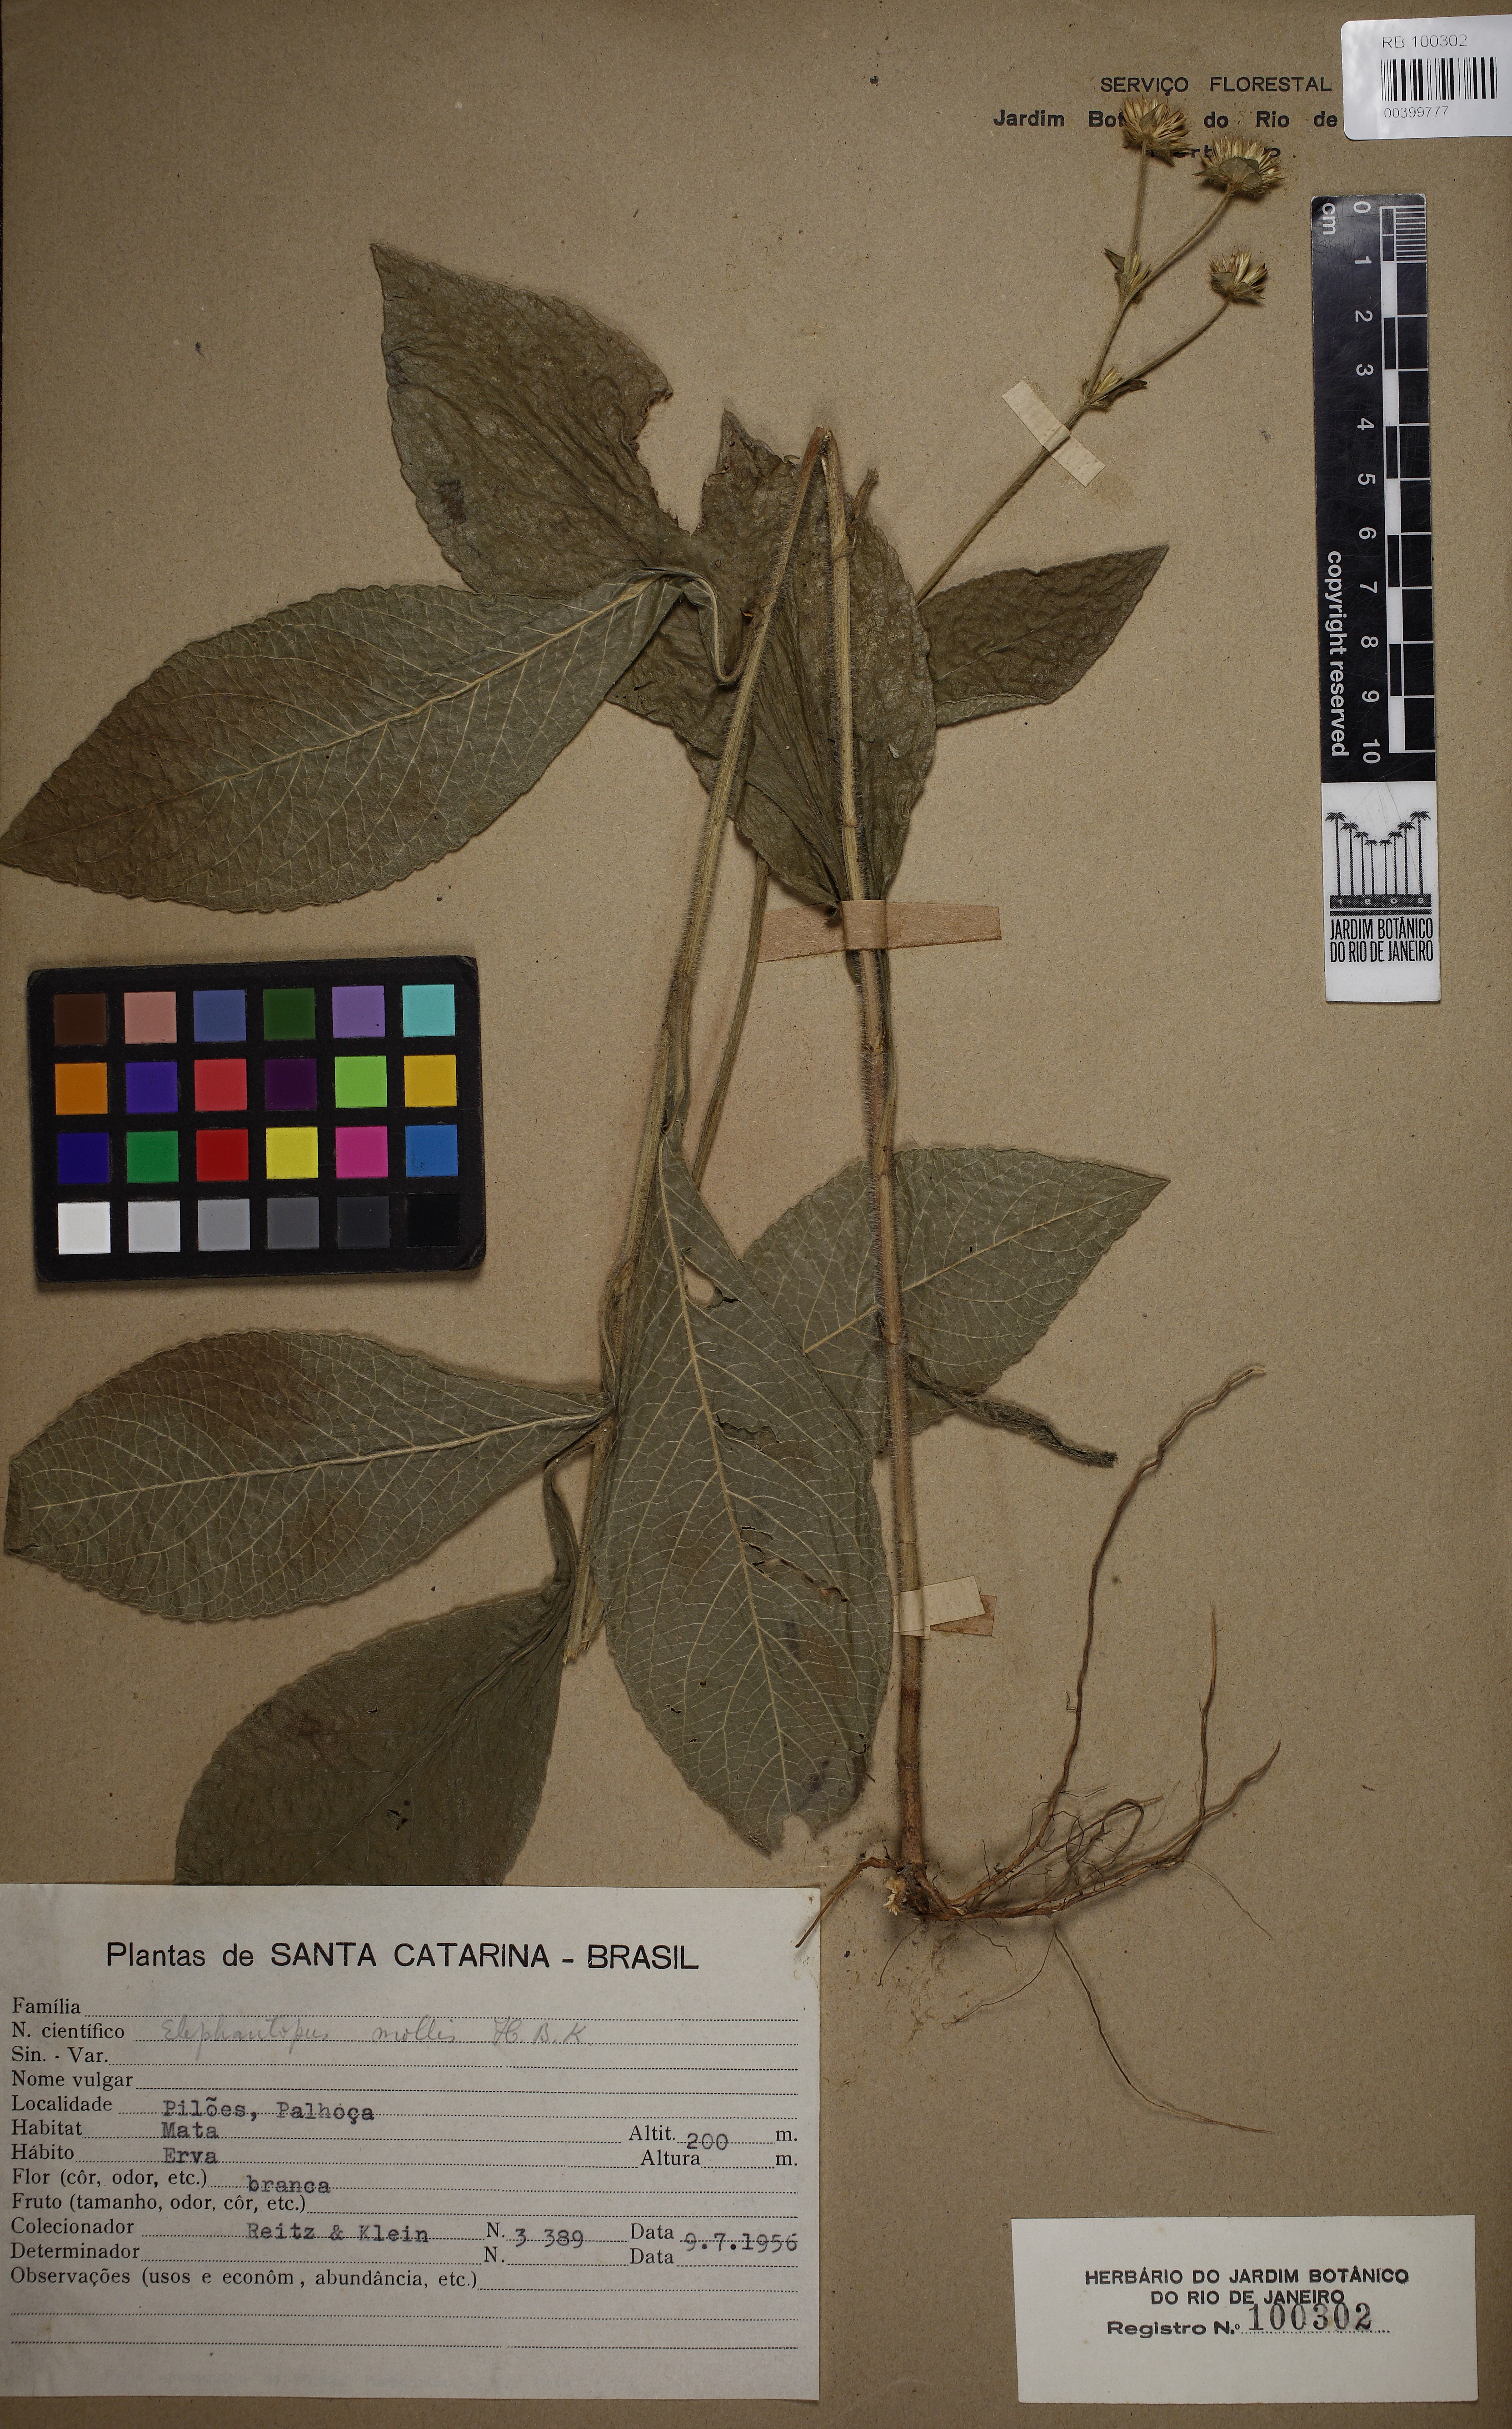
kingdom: Plantae
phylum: Tracheophyta
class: Magnoliopsida
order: Asterales
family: Asteraceae
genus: Elephantopus
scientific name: Elephantopus mollis
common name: Soft elephantsfoot
